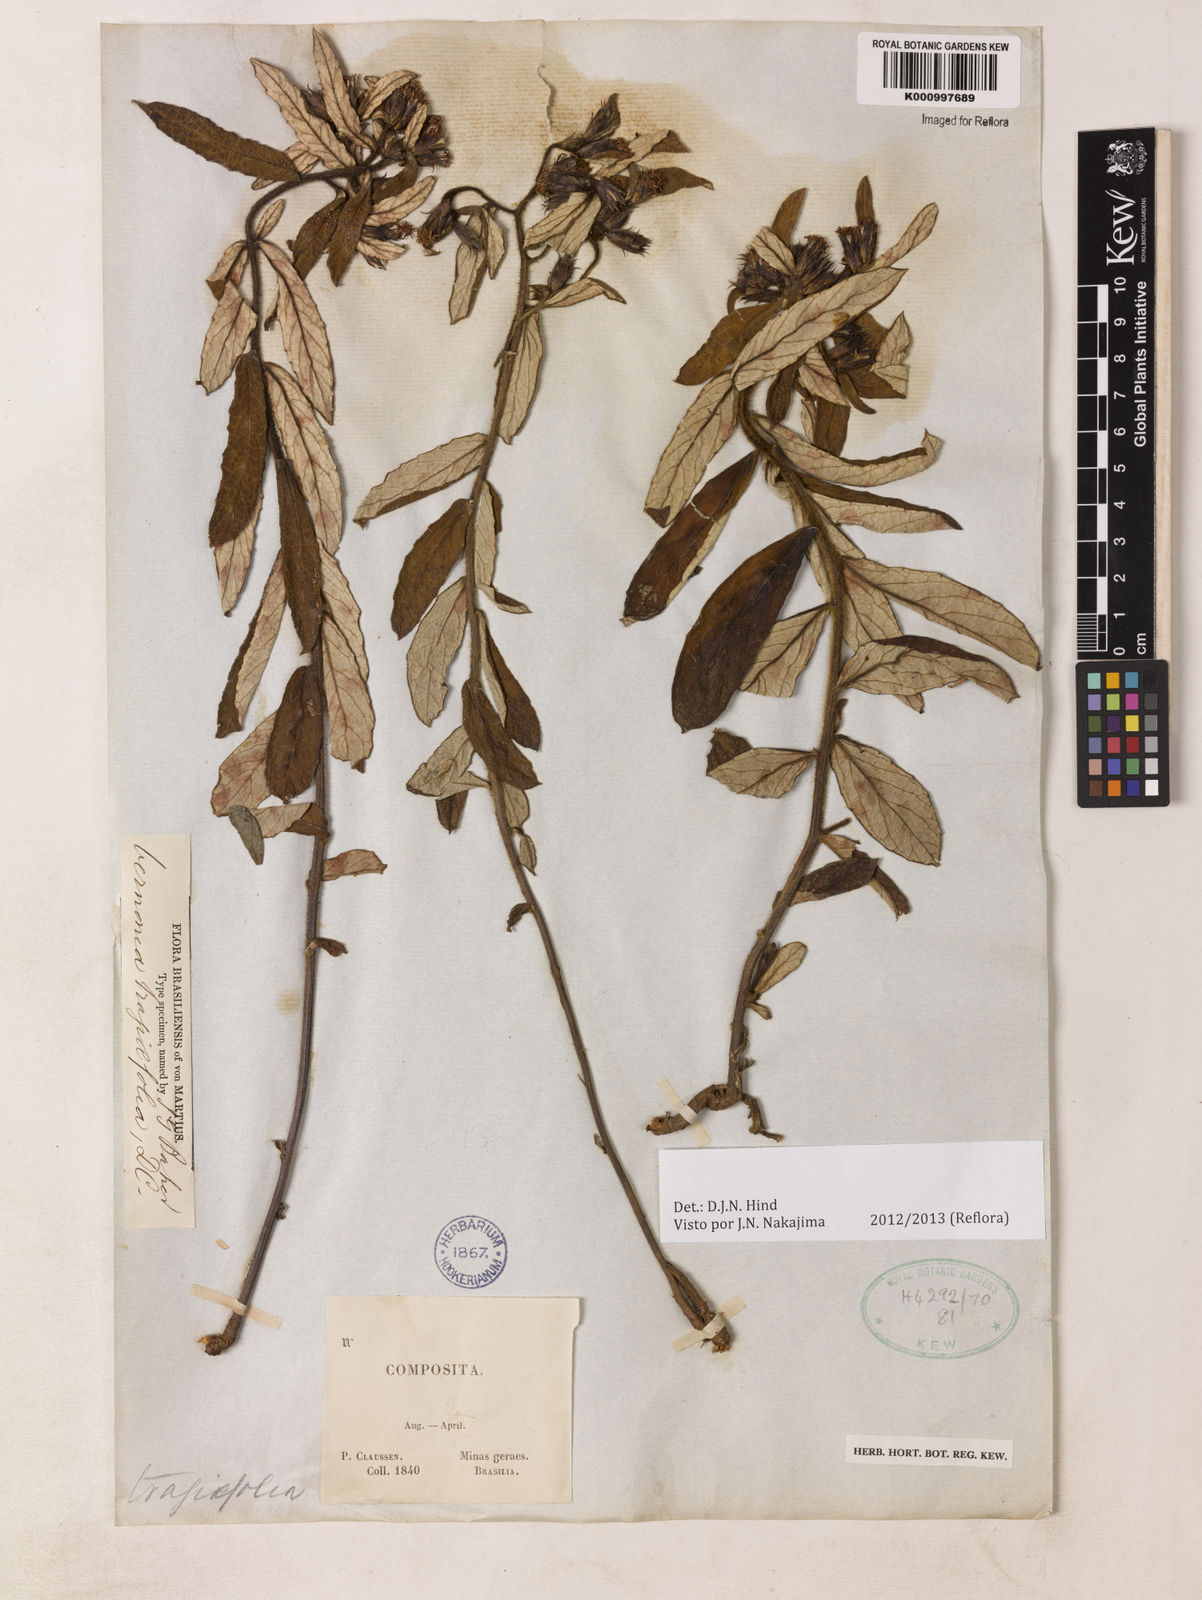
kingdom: Plantae
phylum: Tracheophyta
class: Magnoliopsida
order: Asterales
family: Asteraceae
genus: Vernonia
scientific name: Vernonia
